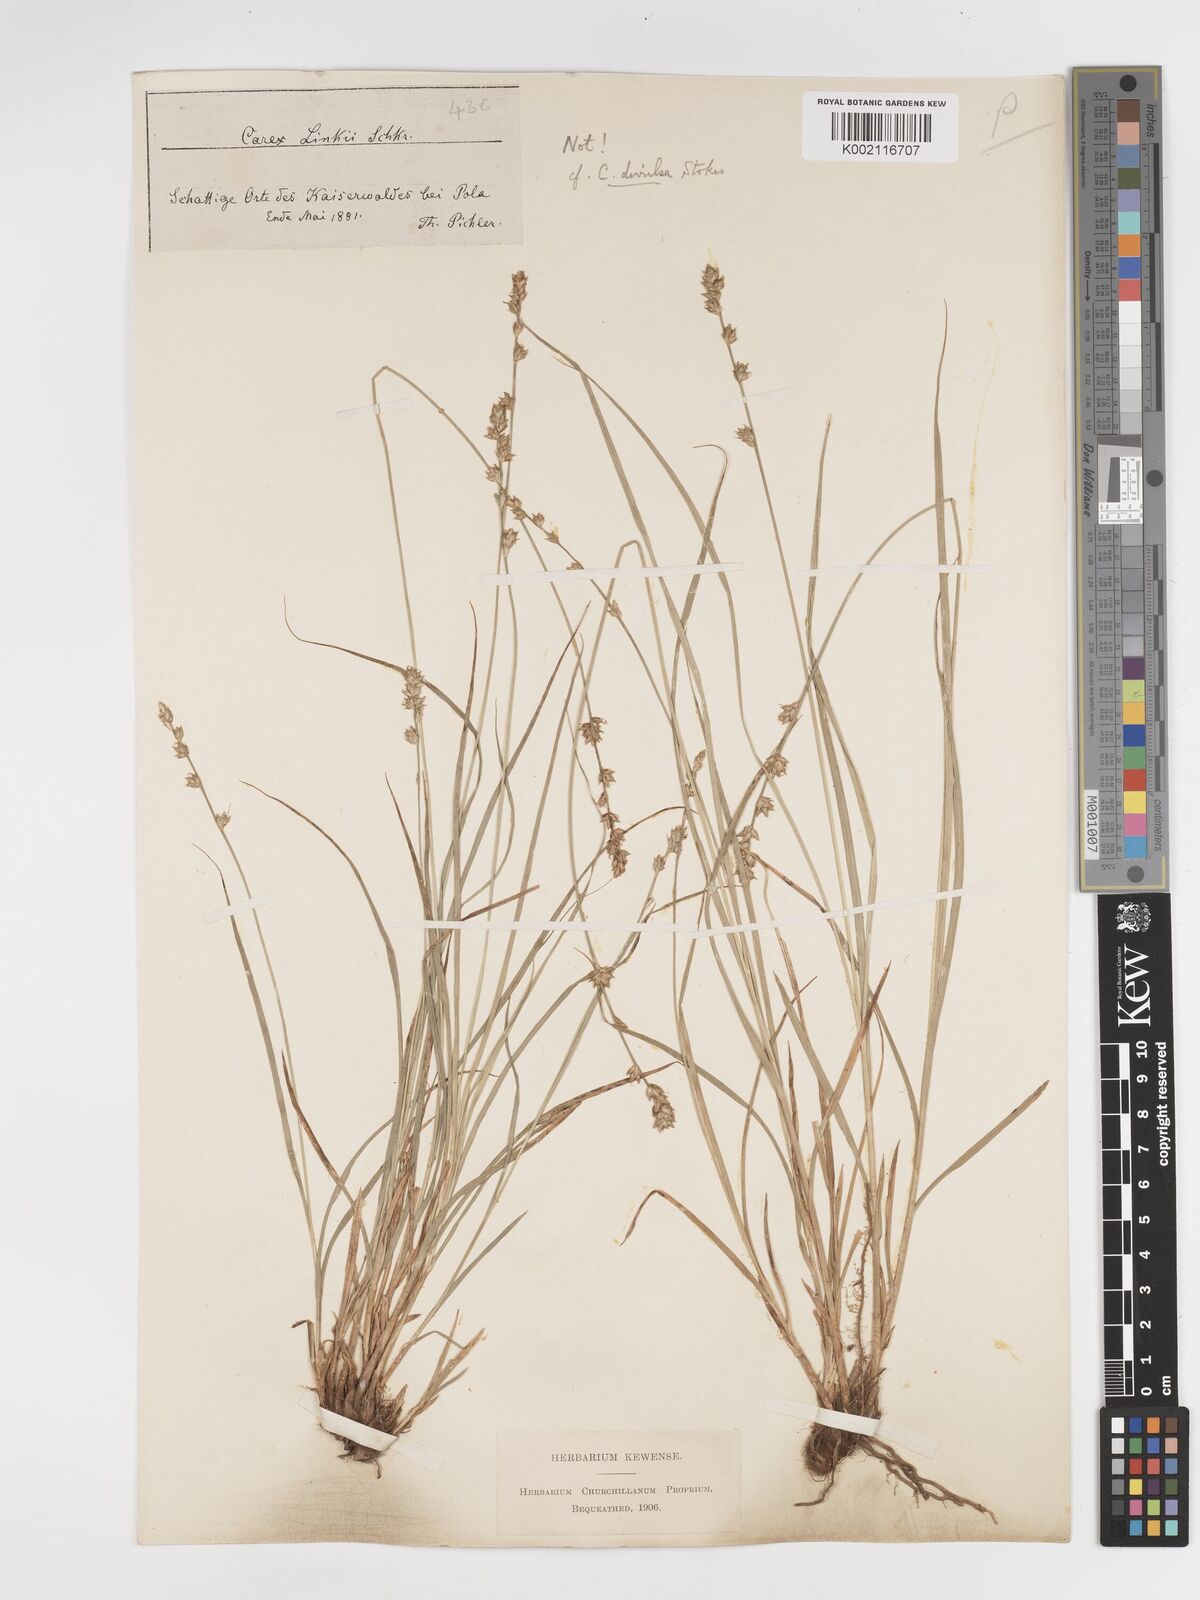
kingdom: Plantae
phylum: Tracheophyta
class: Liliopsida
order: Poales
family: Cyperaceae
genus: Carex
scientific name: Carex divulsa
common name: Grassland sedge
